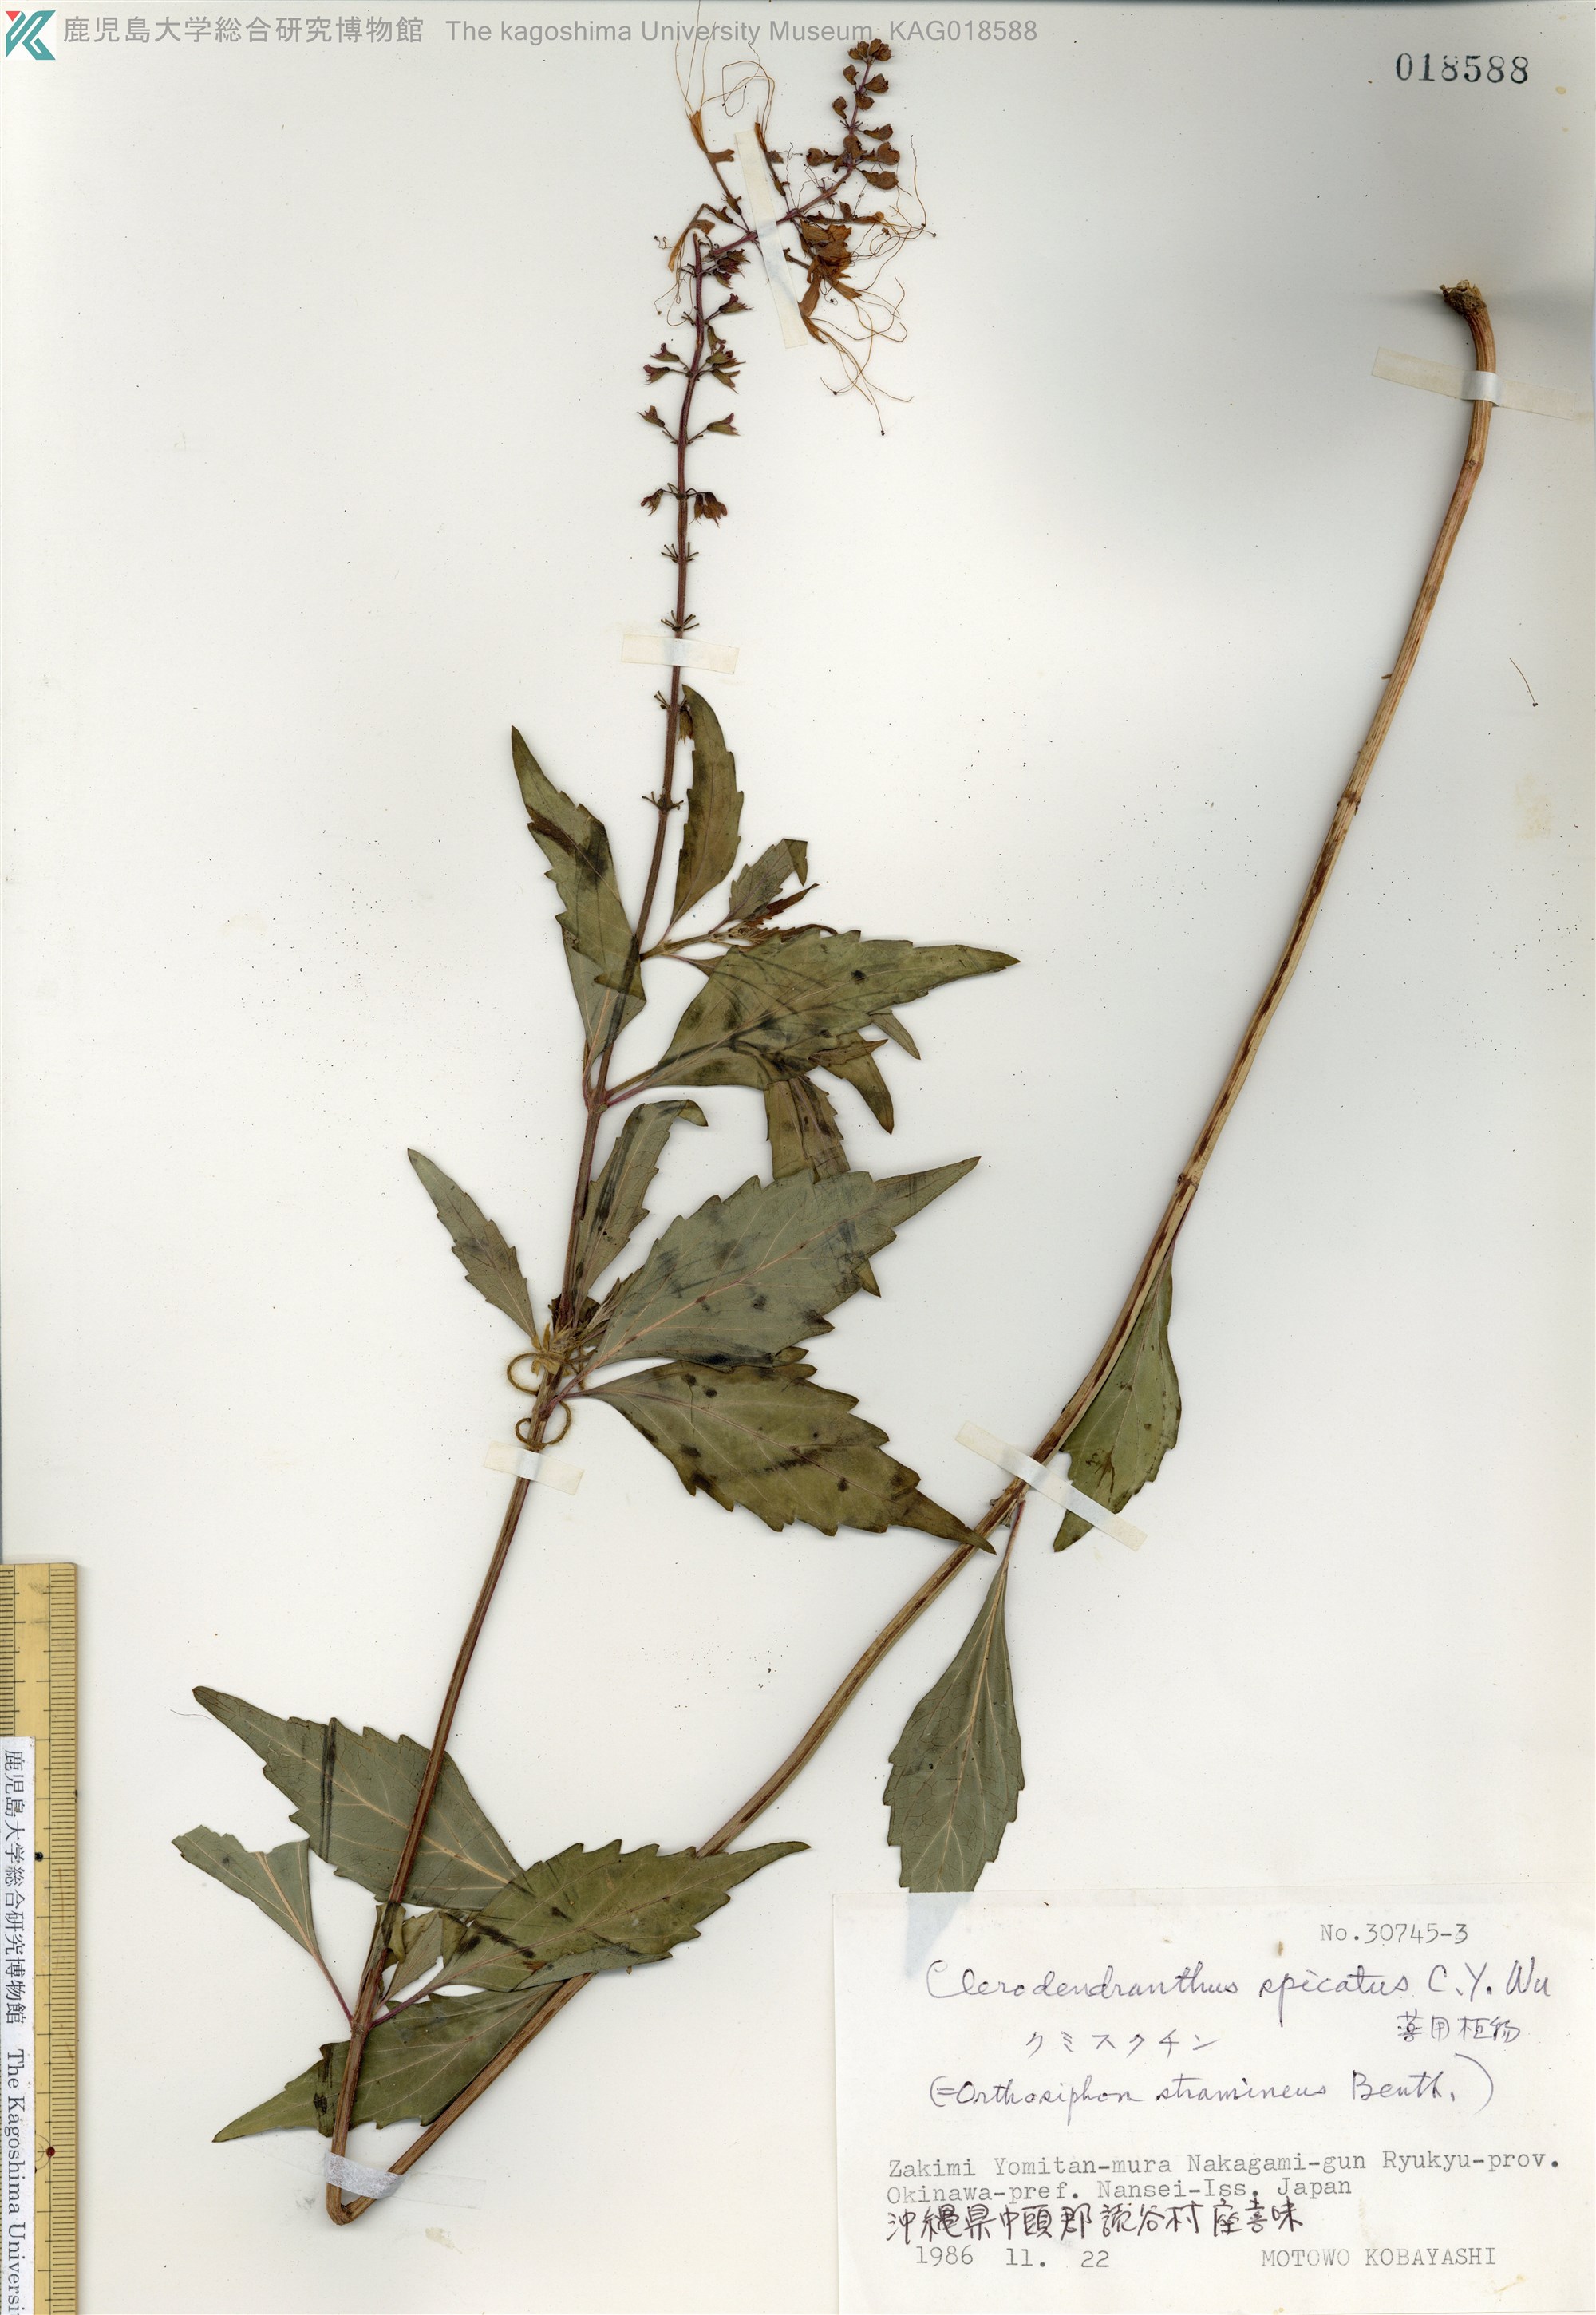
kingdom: Plantae
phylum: Tracheophyta
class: Magnoliopsida
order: Lamiales
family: Lamiaceae
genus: Orthosiphon
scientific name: Orthosiphon aristatus
